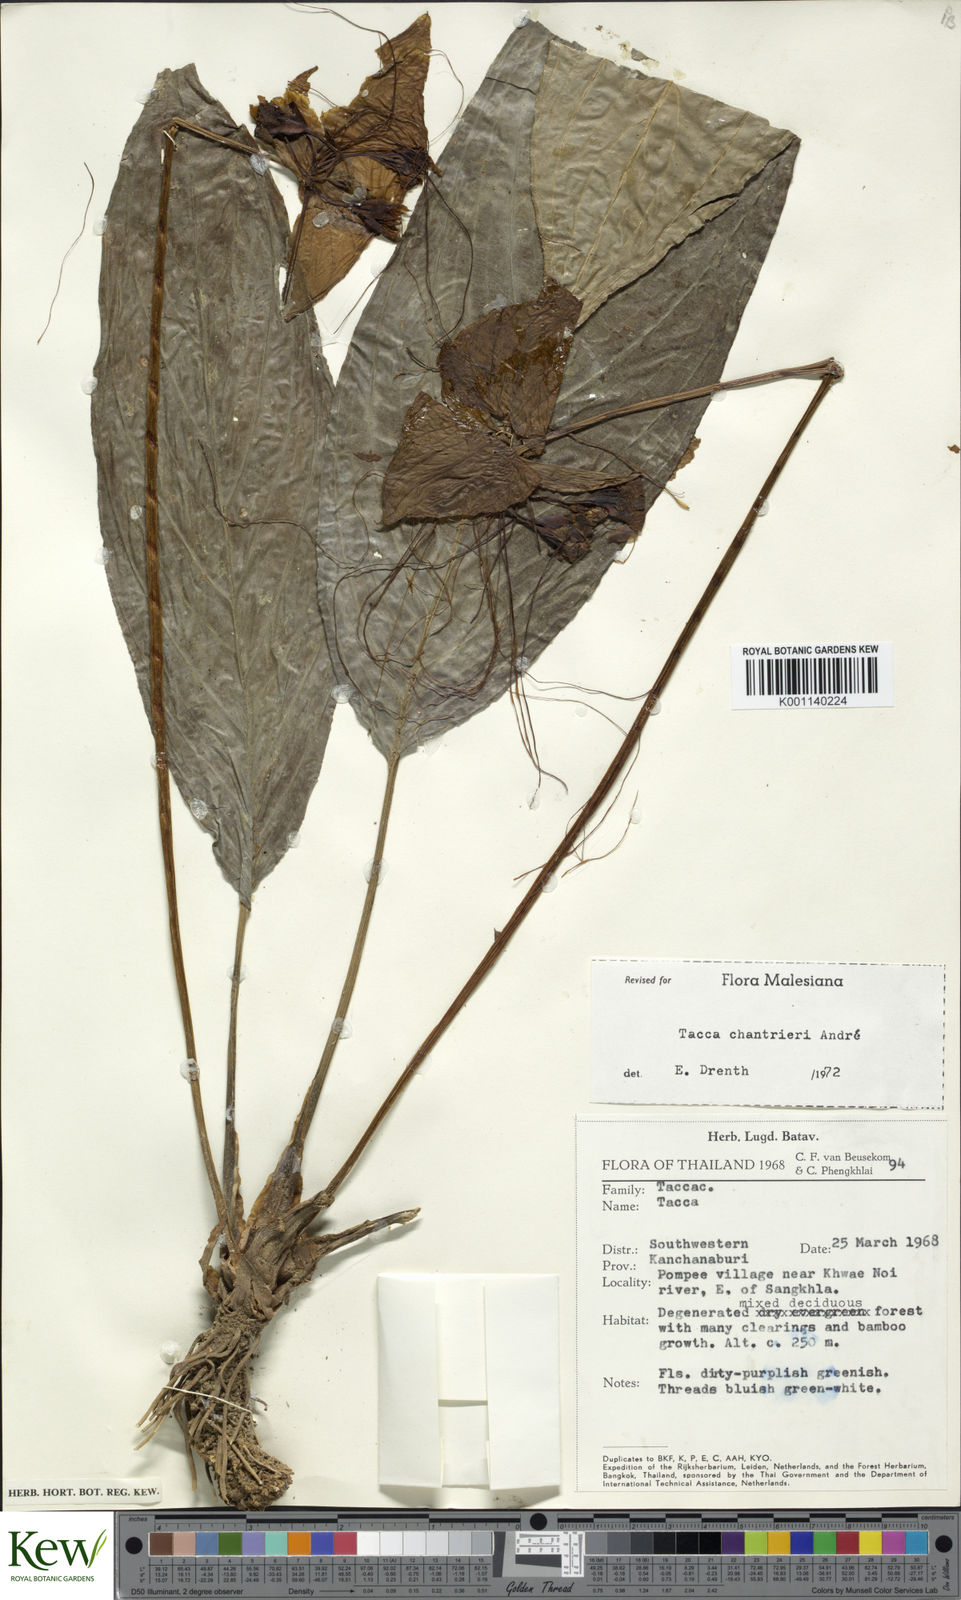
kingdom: Plantae
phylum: Tracheophyta
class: Liliopsida
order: Dioscoreales
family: Dioscoreaceae
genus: Tacca
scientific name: Tacca
